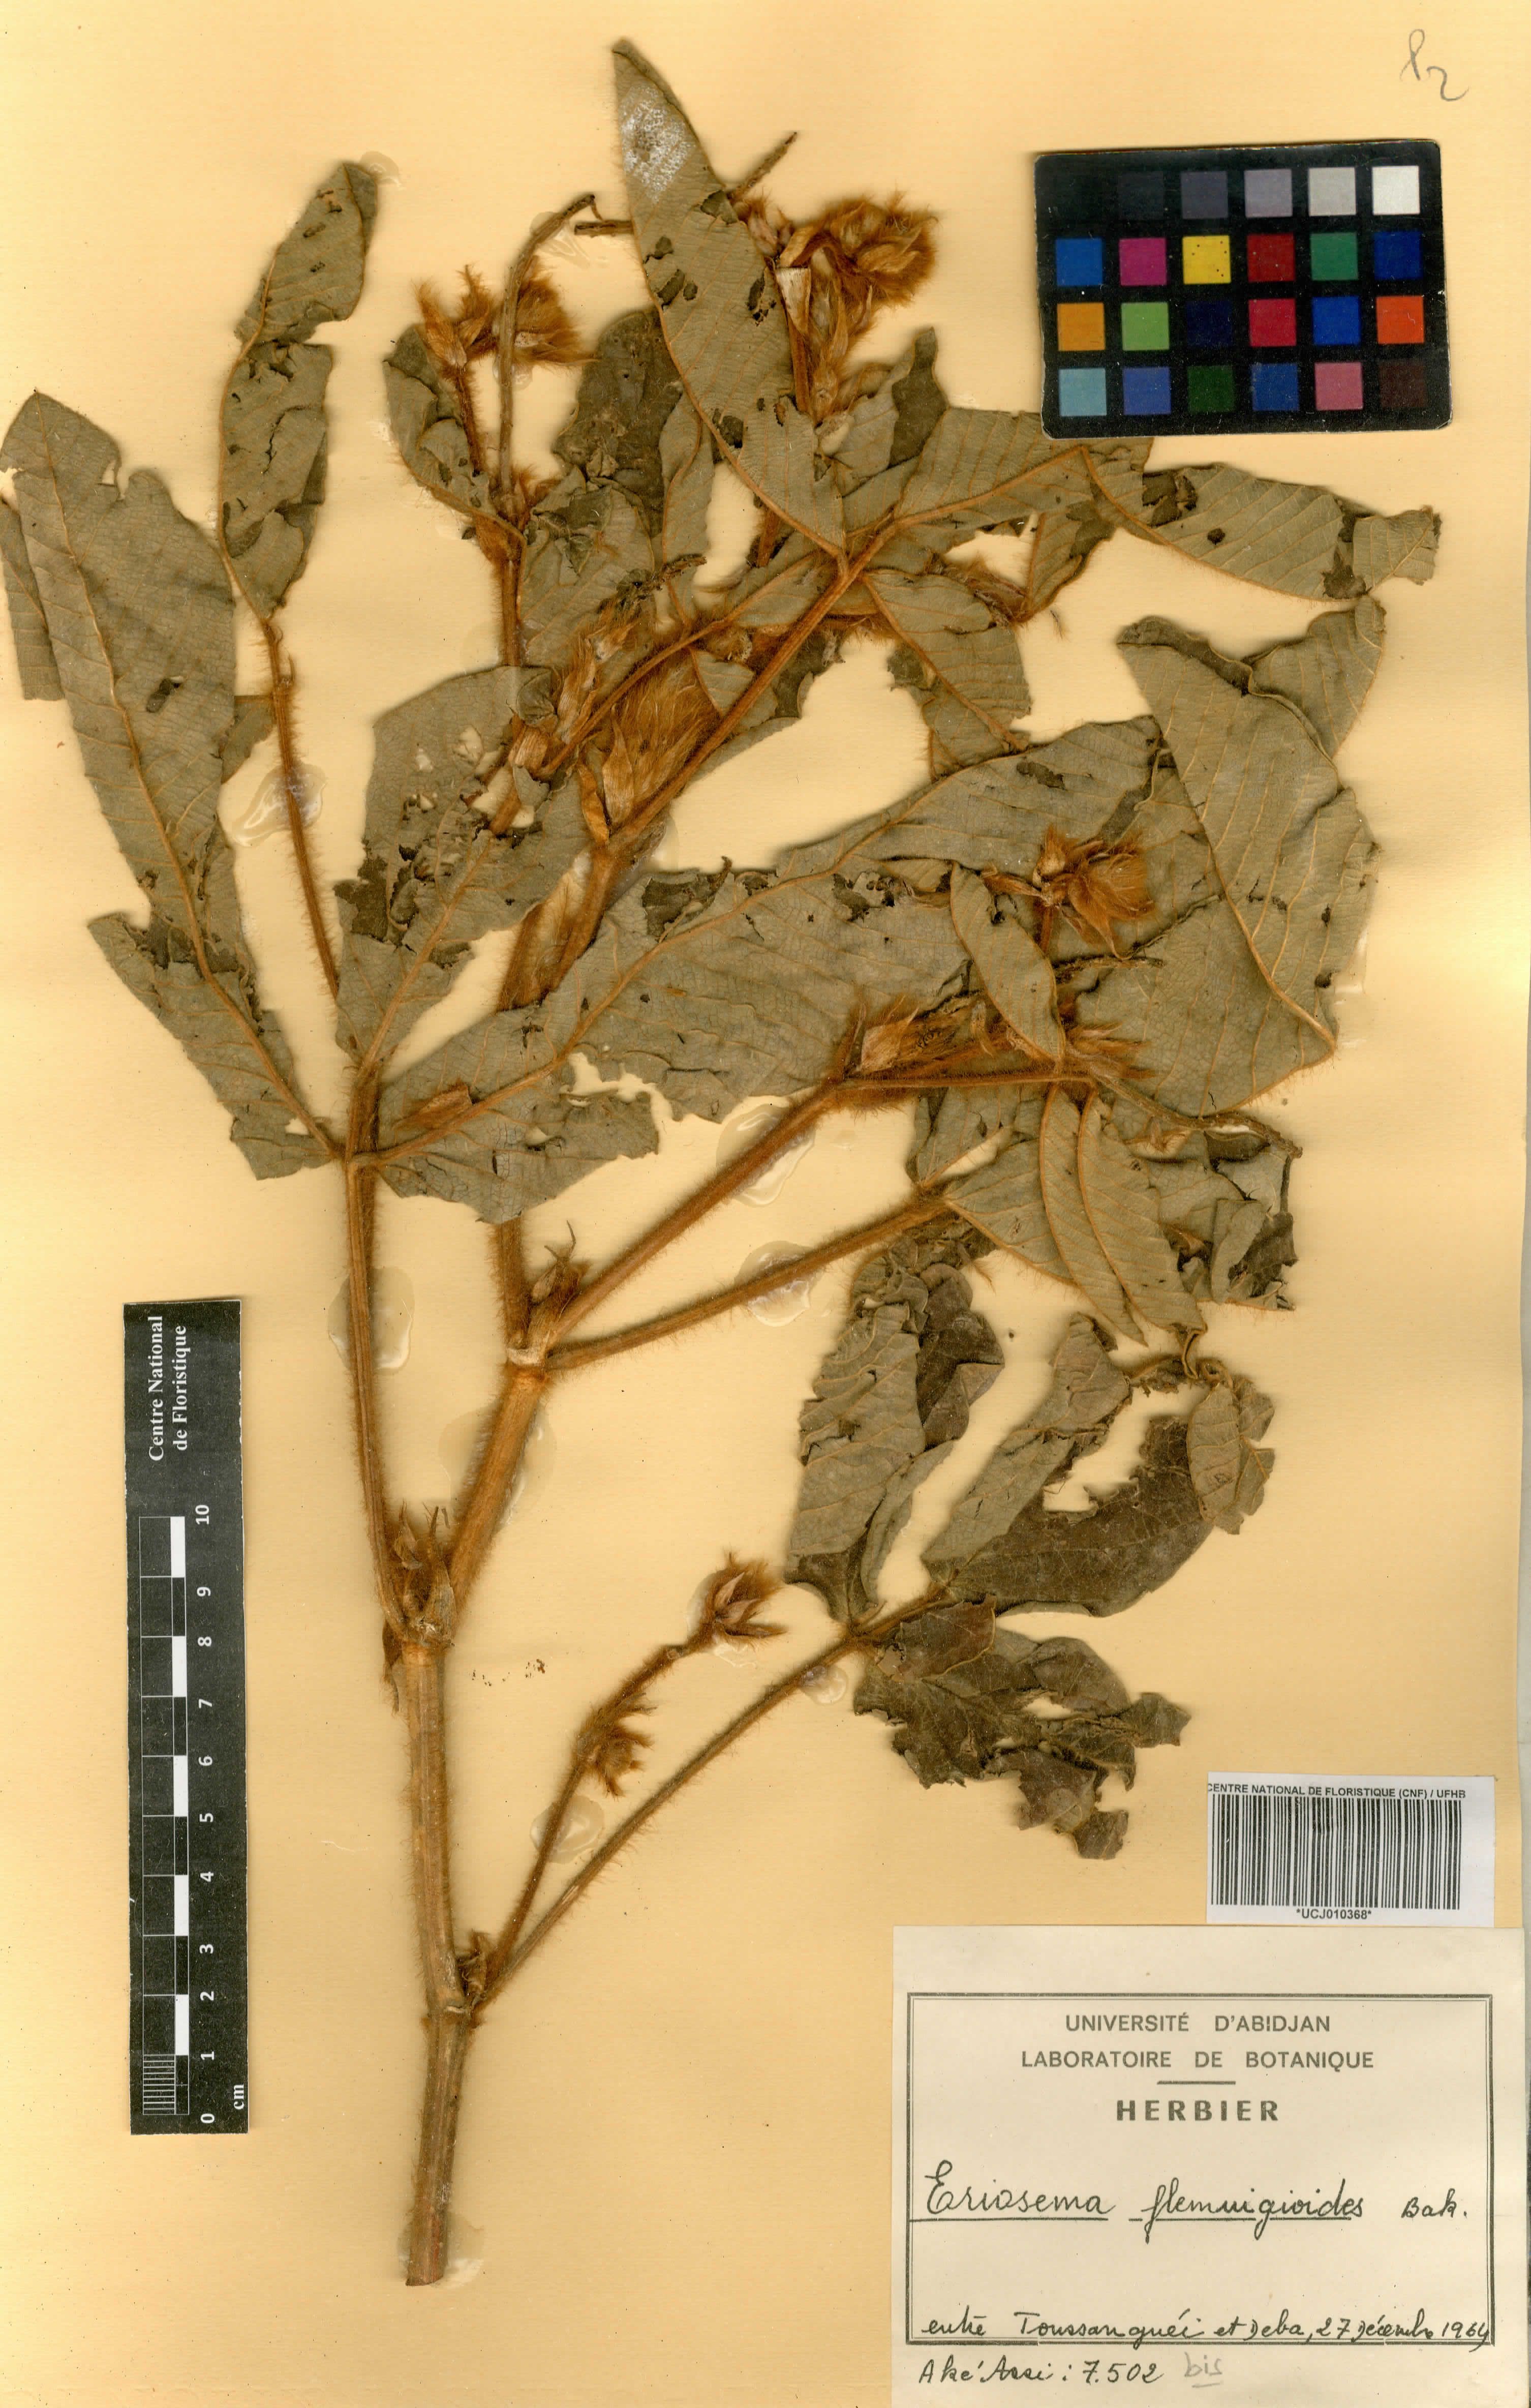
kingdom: Plantae
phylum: Tracheophyta
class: Magnoliopsida
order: Fabales
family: Fabaceae
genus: Eriosema
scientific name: Eriosema flemingioides
